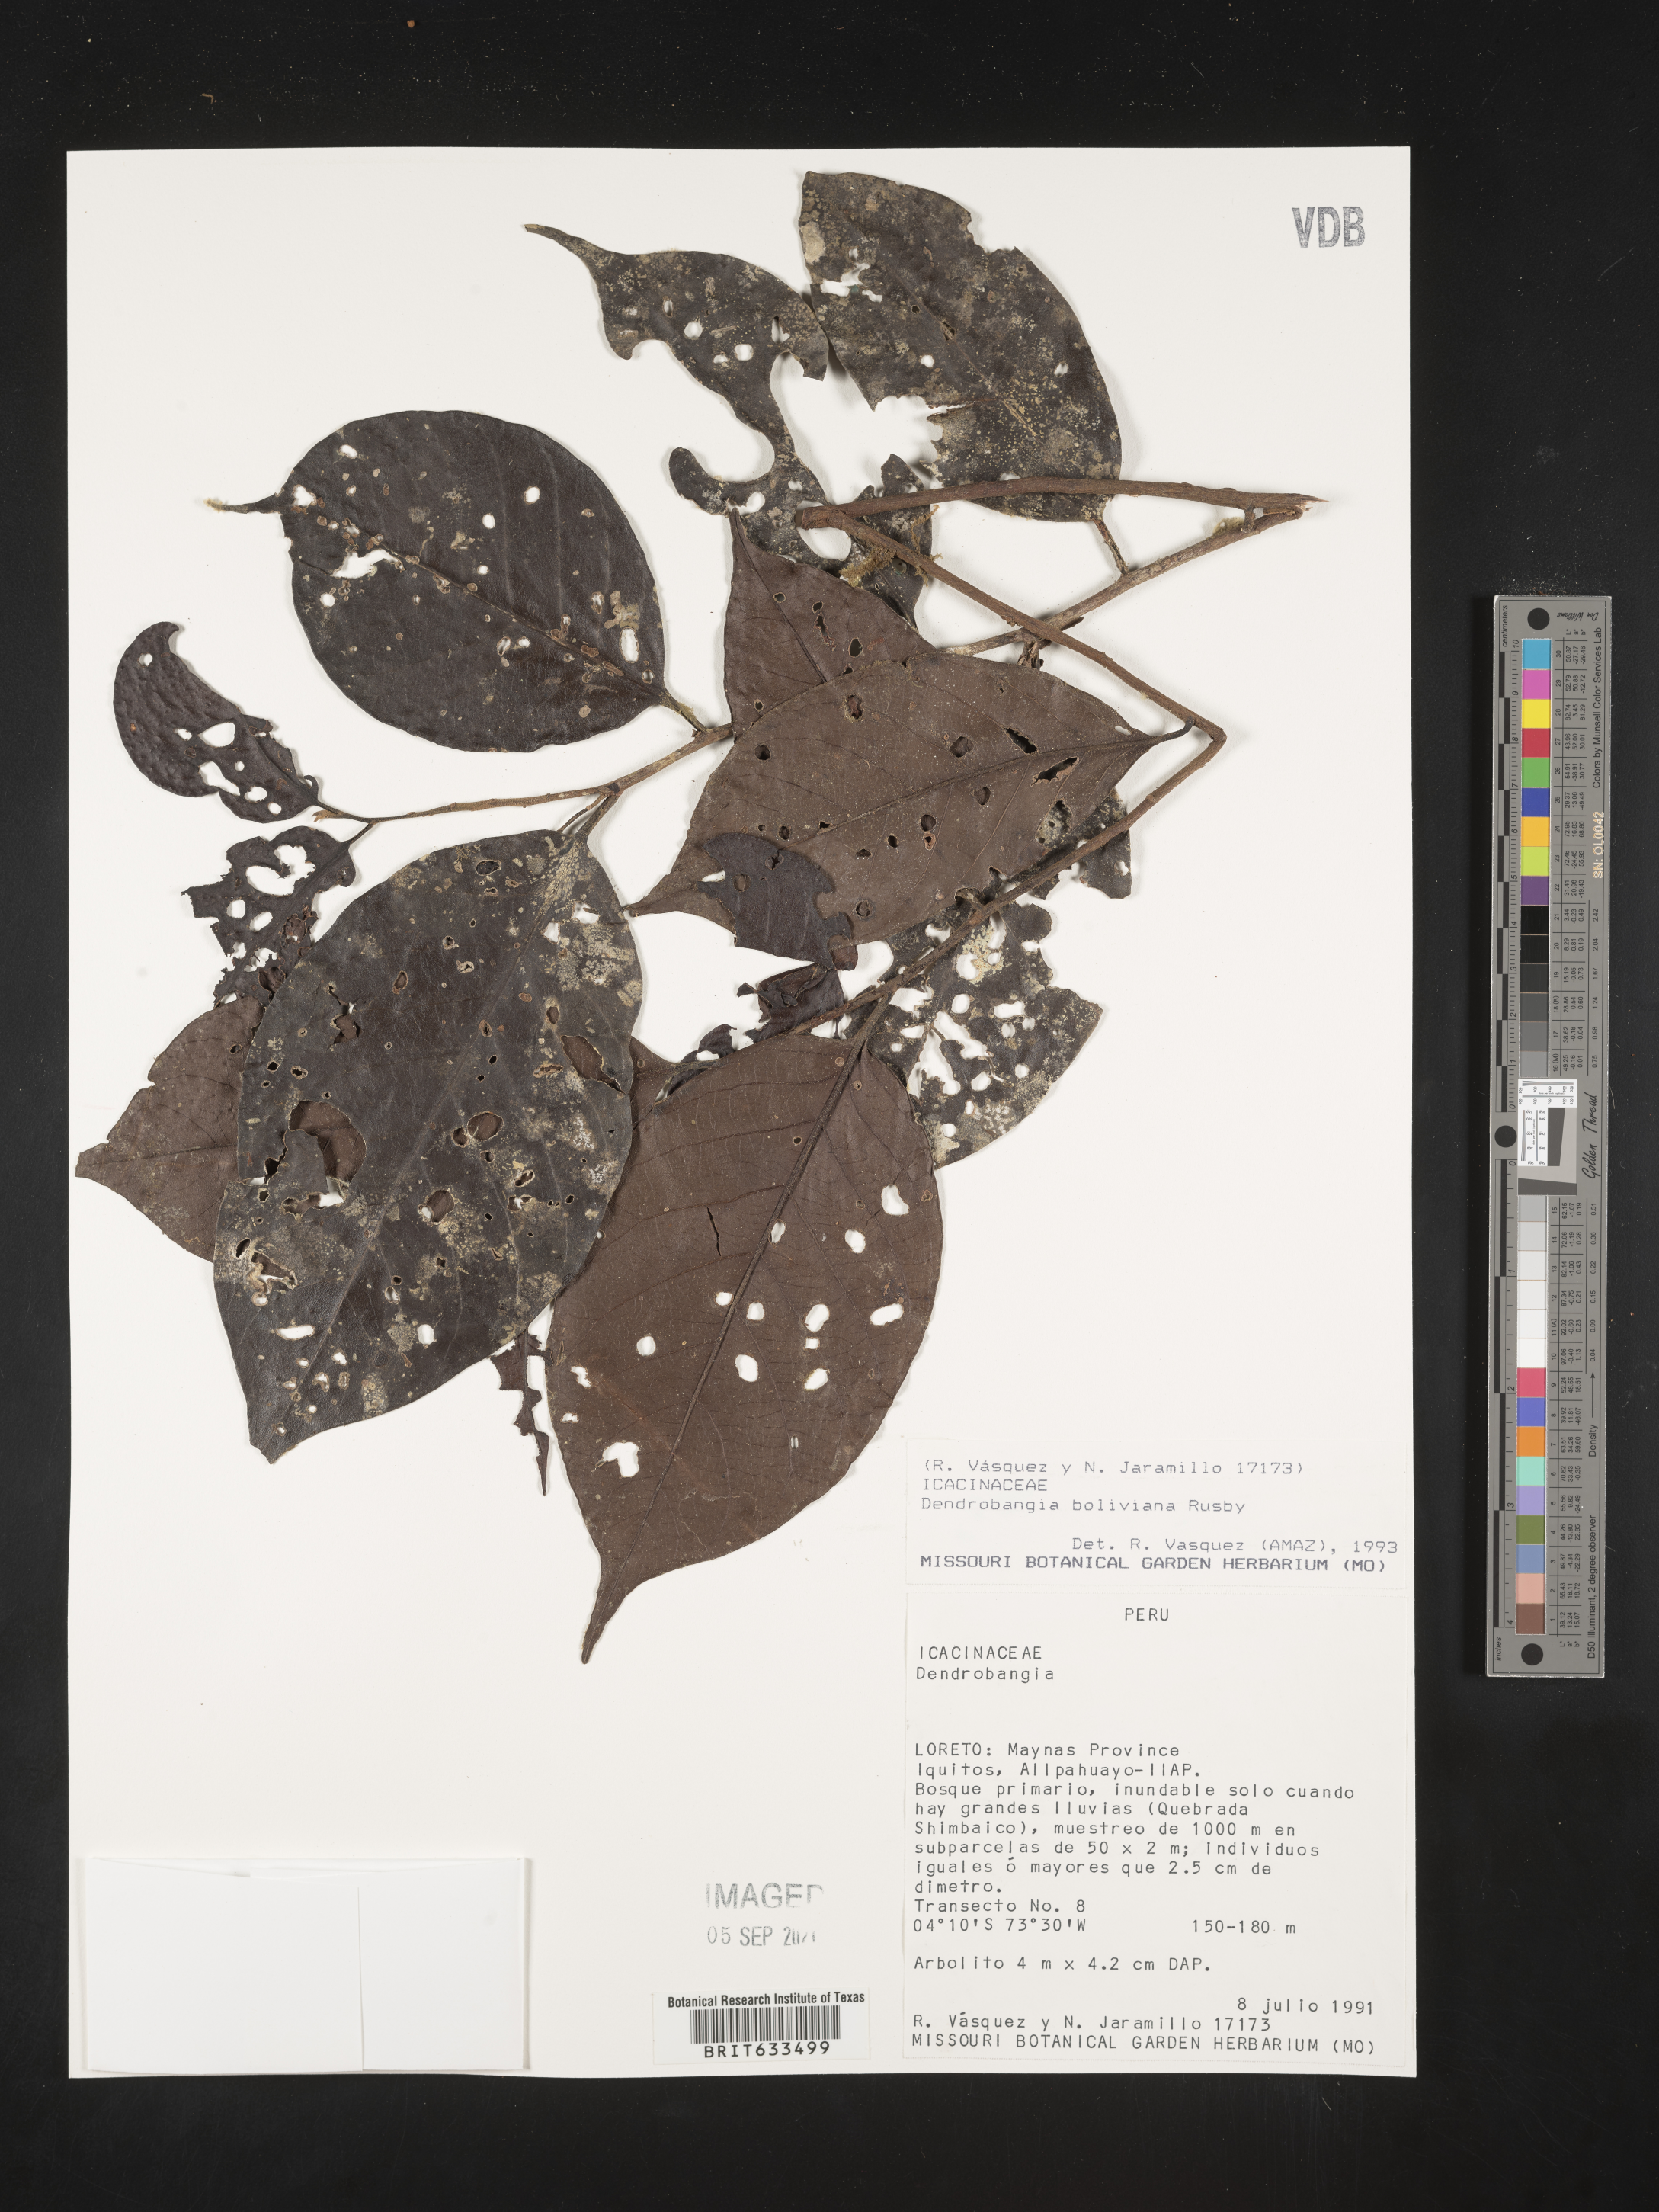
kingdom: Plantae
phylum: Tracheophyta
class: Magnoliopsida
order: Metteniusales
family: Metteniusaceae
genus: Dendrobangia
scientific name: Dendrobangia
